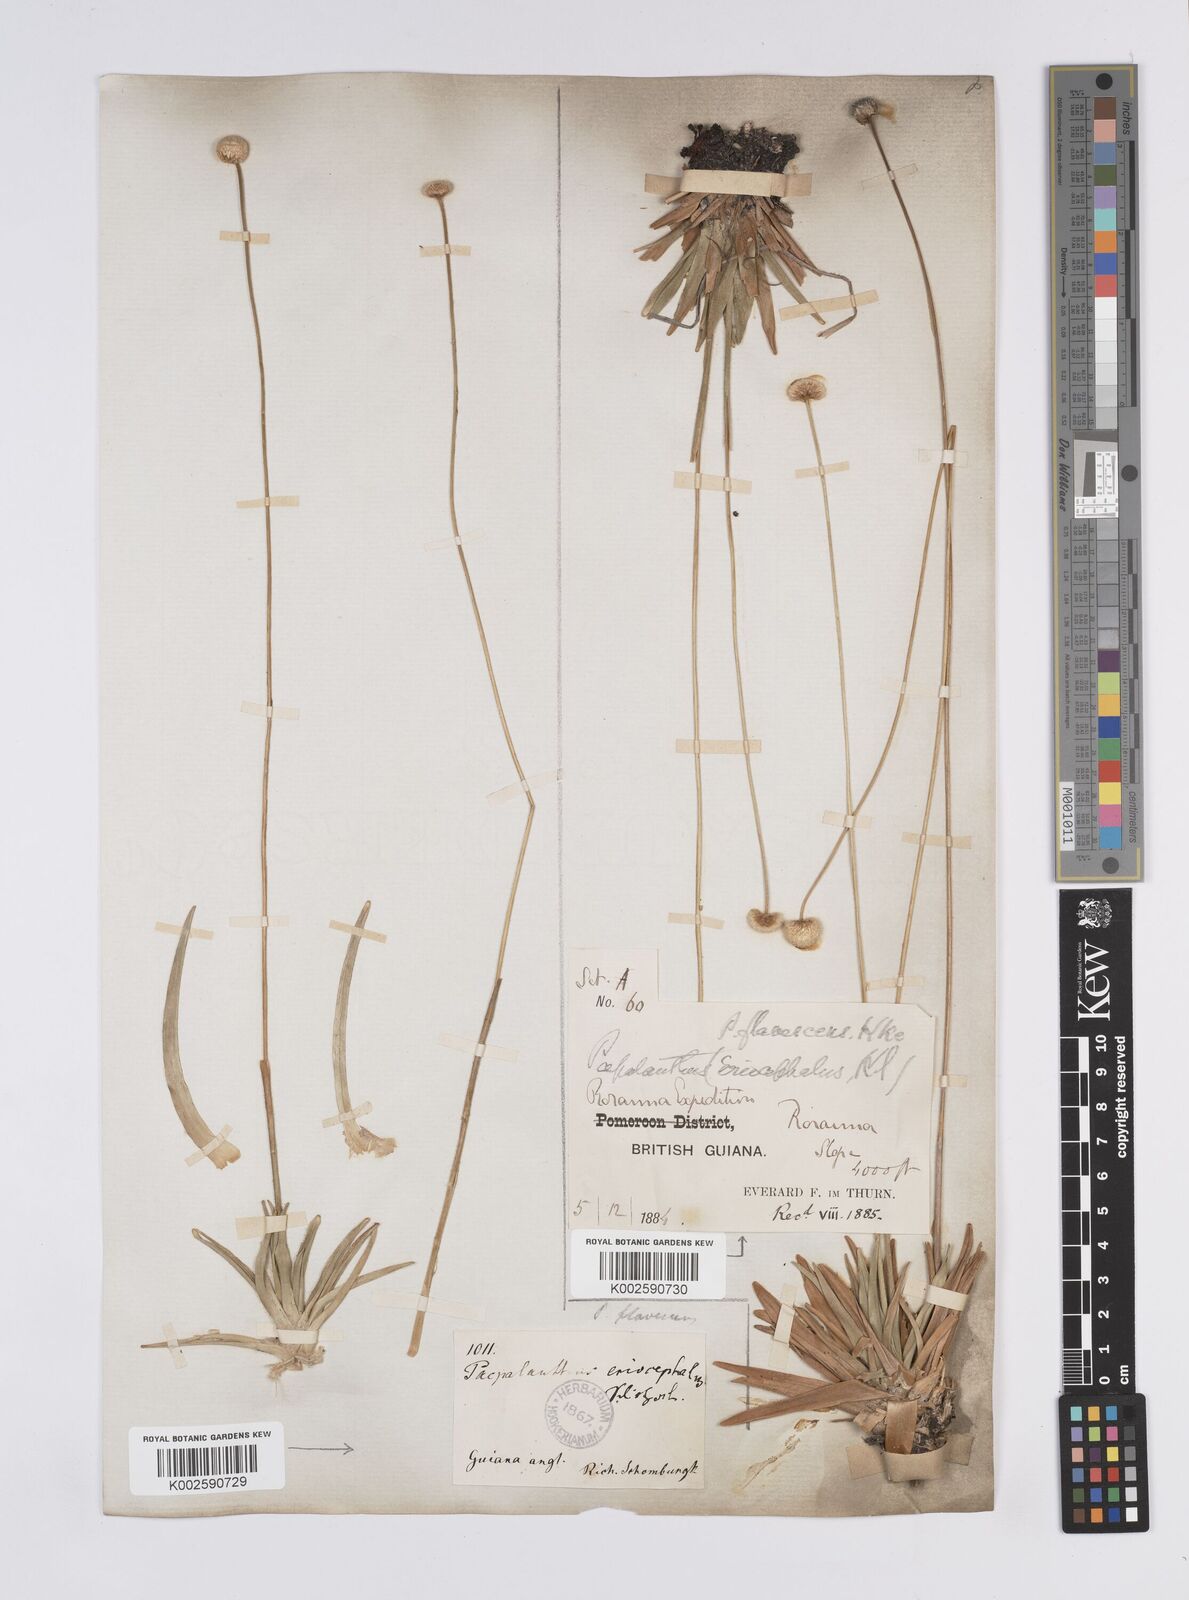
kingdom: Plantae
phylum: Tracheophyta
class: Liliopsida
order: Poales
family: Eriocaulaceae
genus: Leiothrix
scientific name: Leiothrix flavescens
